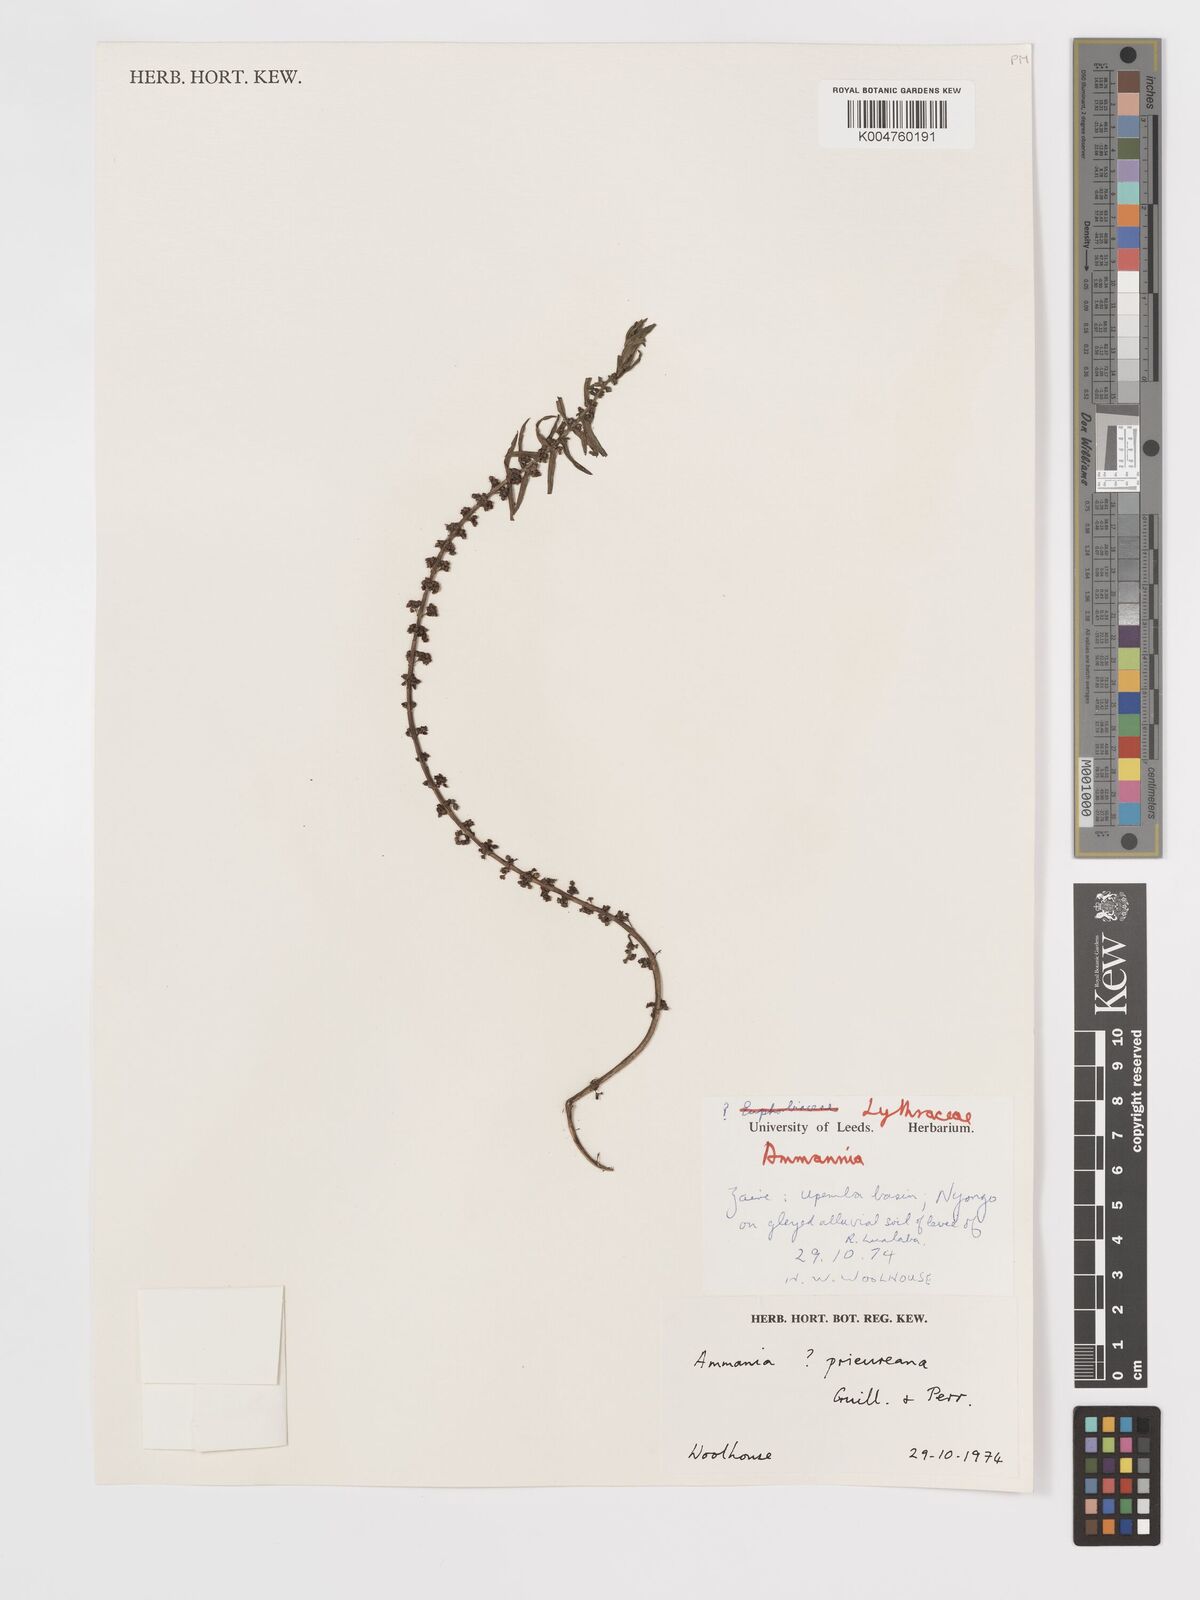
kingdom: Plantae
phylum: Tracheophyta
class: Magnoliopsida
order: Myrtales
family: Lythraceae
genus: Ammannia
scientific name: Ammannia prieuriana
